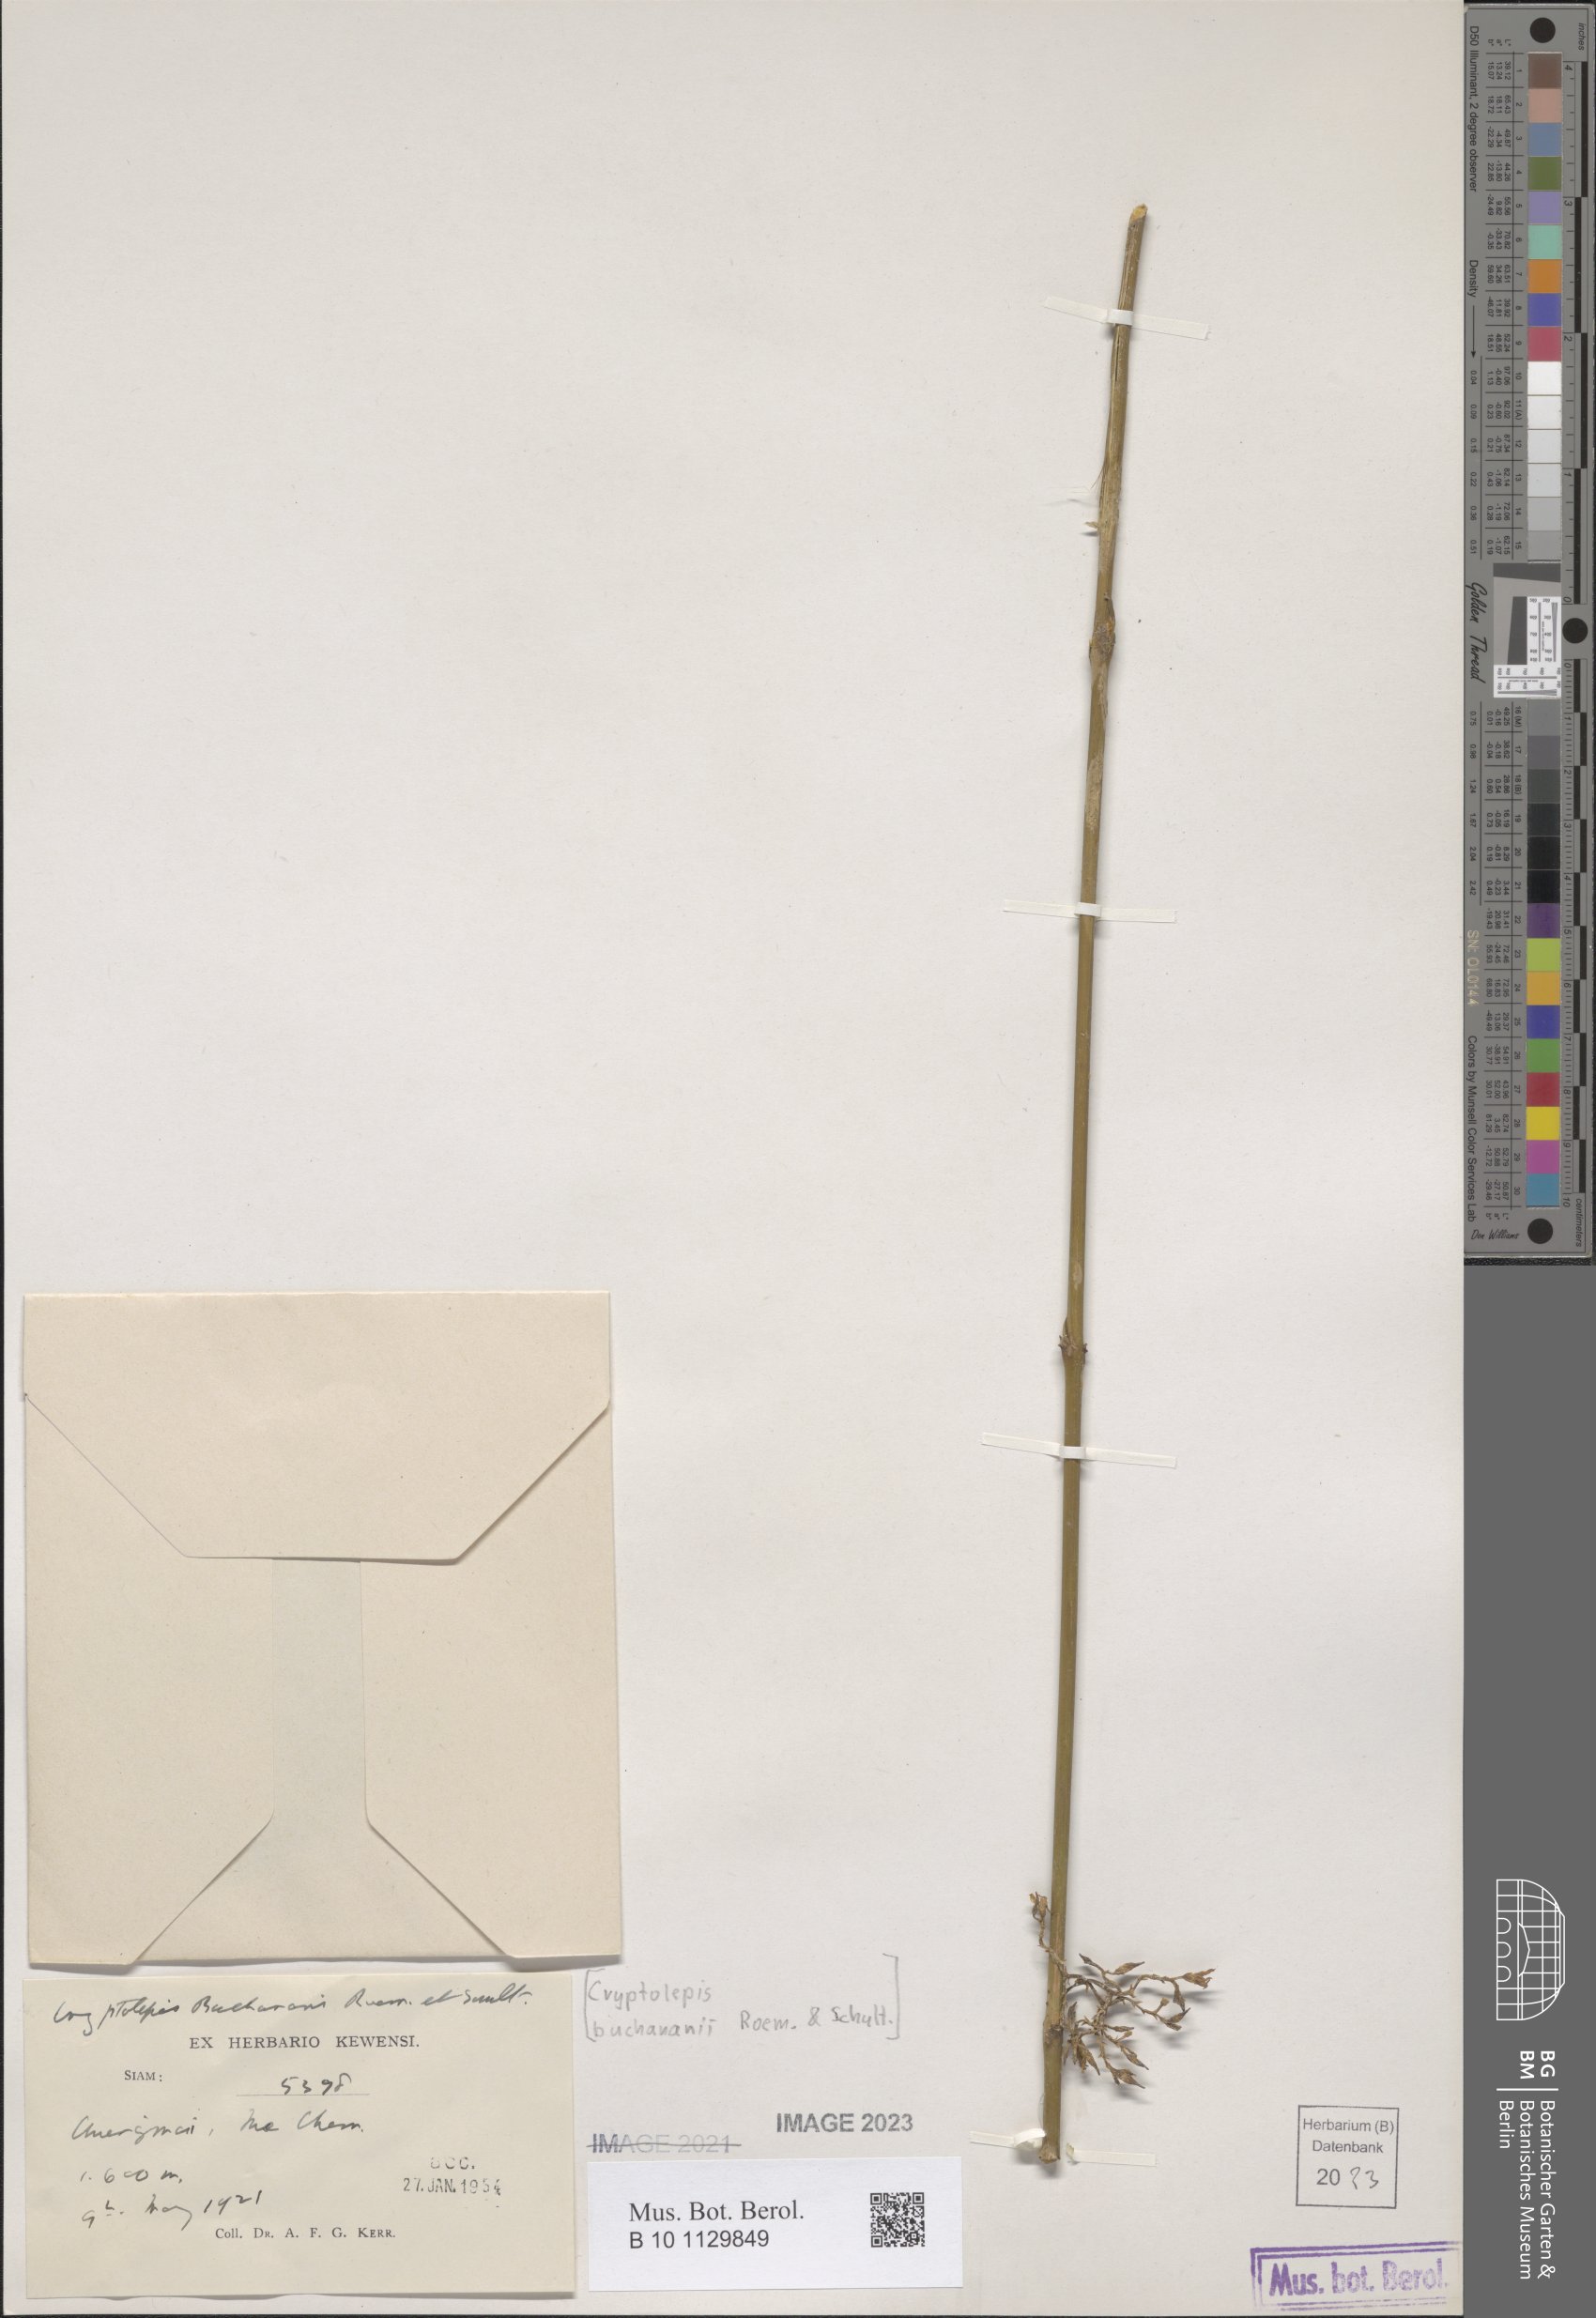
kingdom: Plantae
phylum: Tracheophyta
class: Magnoliopsida
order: Gentianales
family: Apocynaceae
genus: Cryptolepis
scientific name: Cryptolepis buchananii
